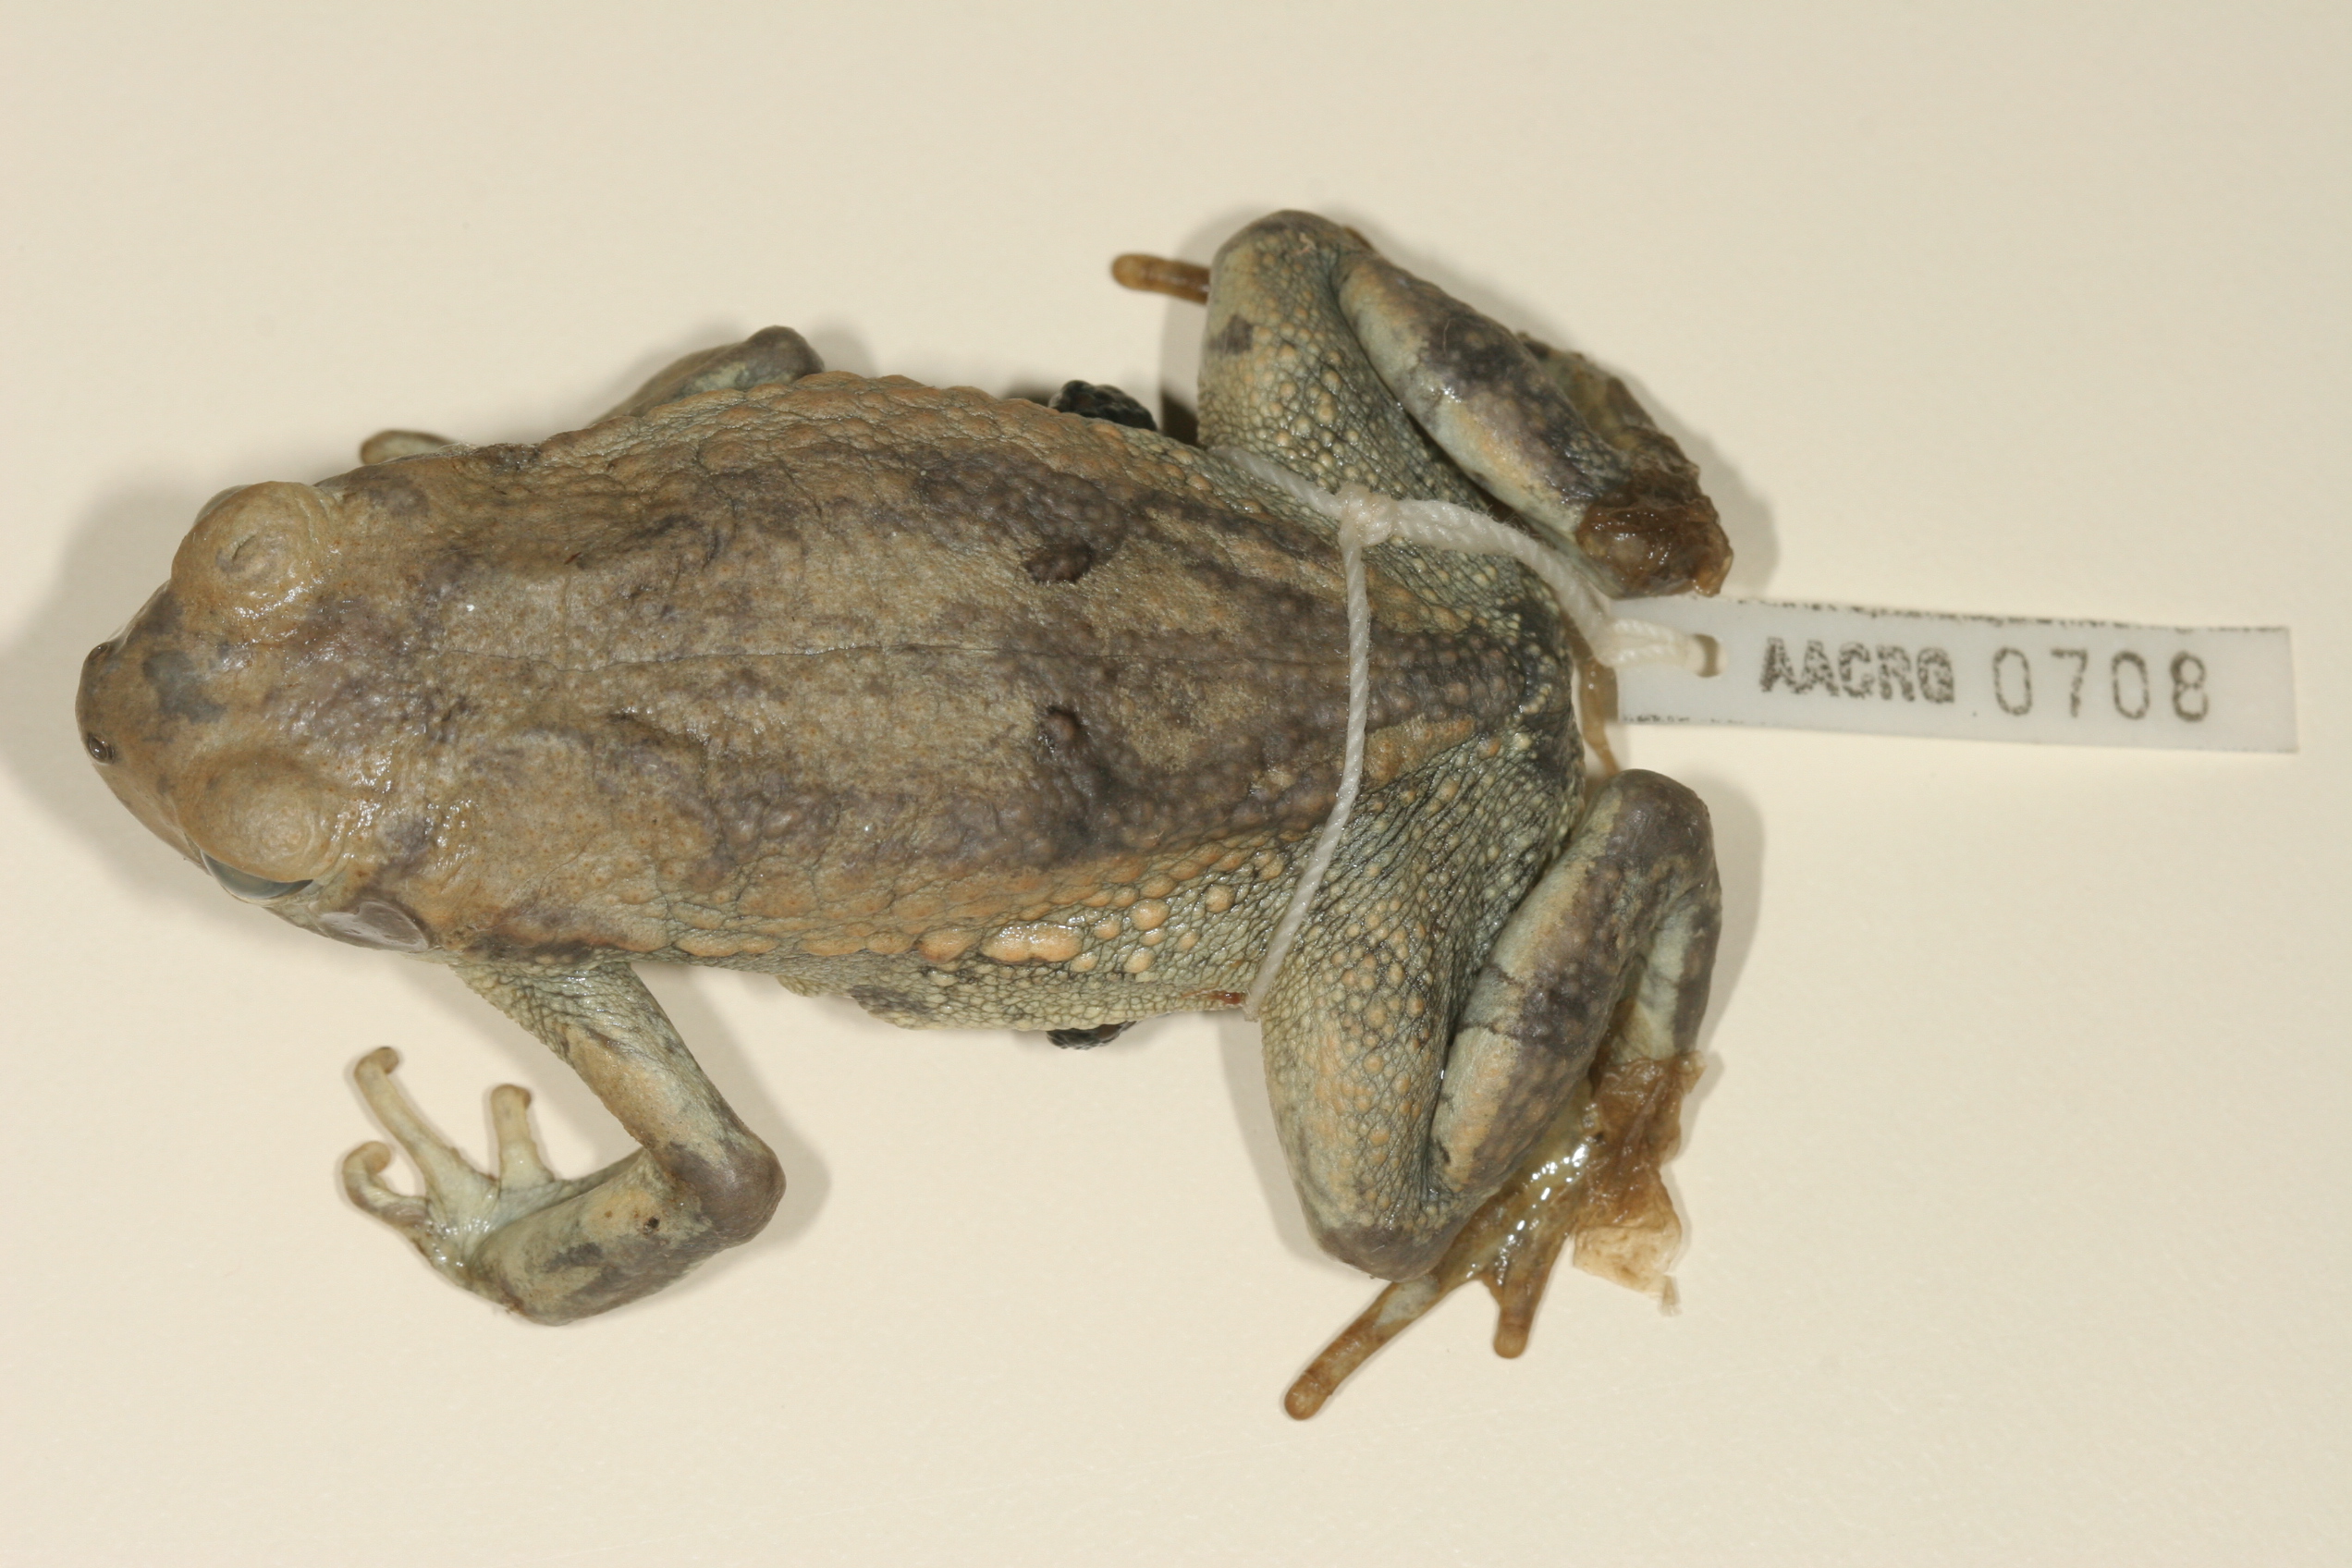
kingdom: Animalia
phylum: Chordata
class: Amphibia
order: Anura
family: Bufonidae
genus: Schismaderma
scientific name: Schismaderma carens
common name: African split-skin toad
